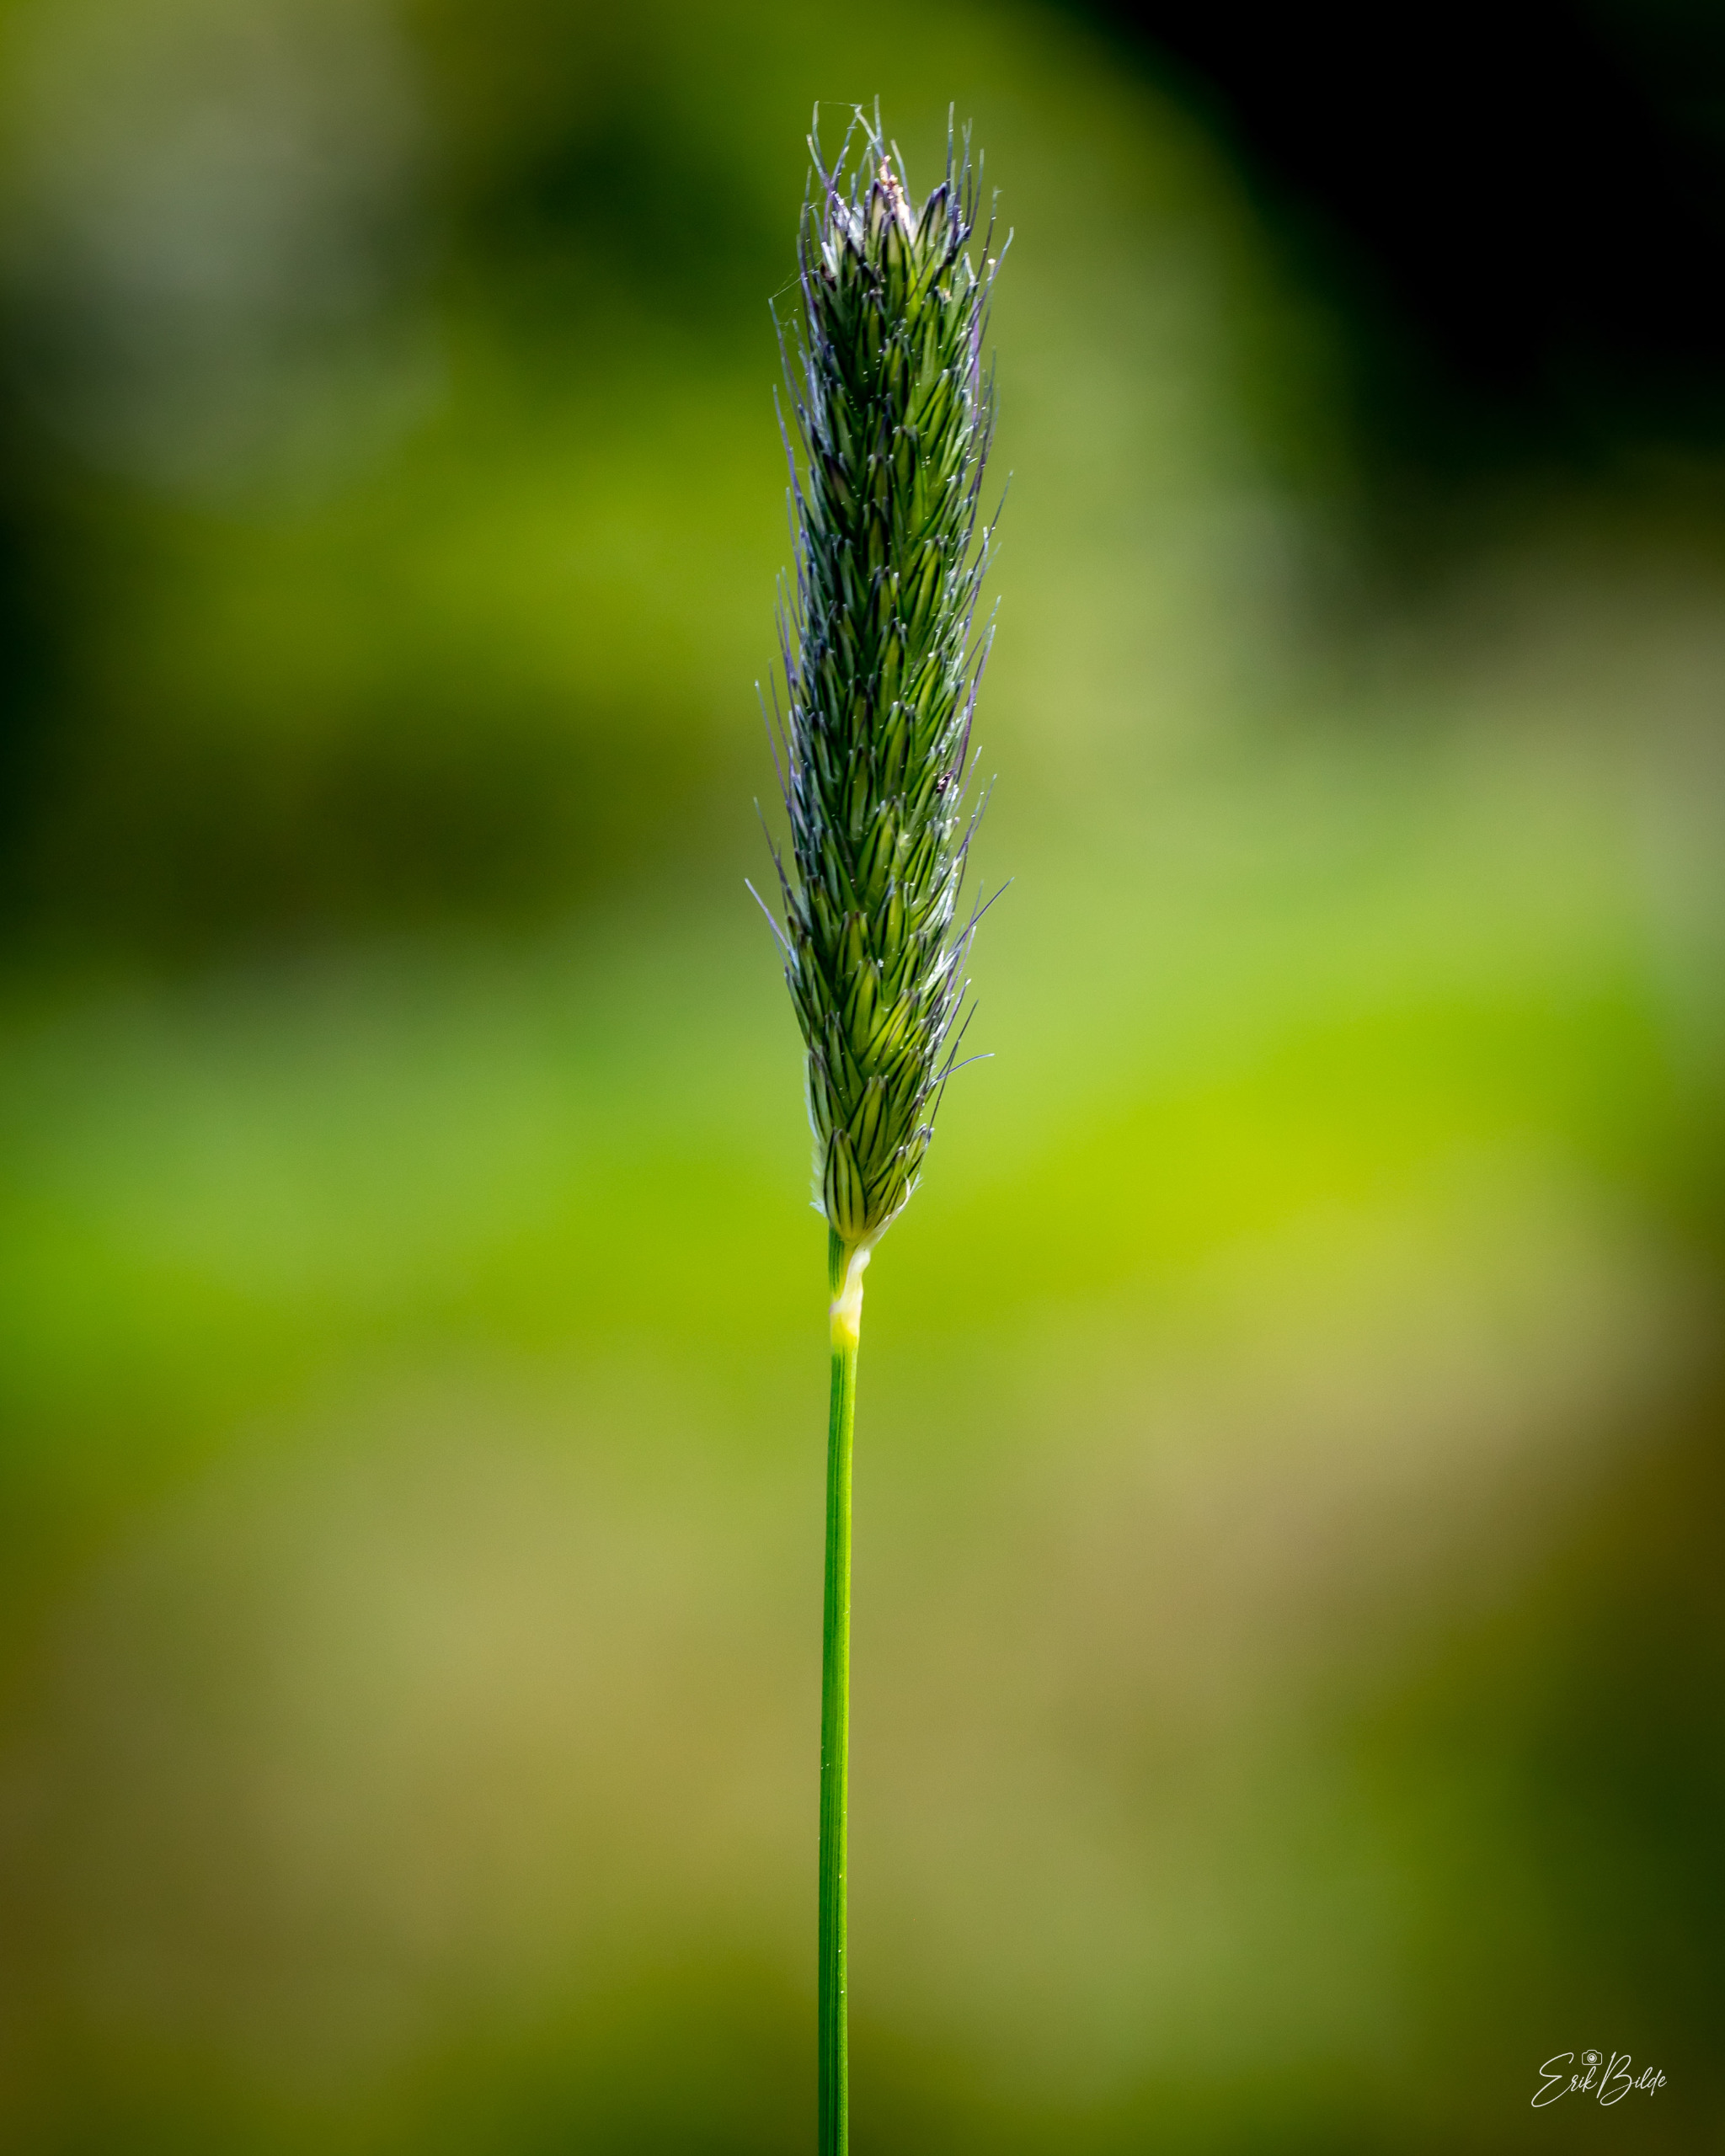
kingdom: Plantae
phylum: Tracheophyta
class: Liliopsida
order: Poales
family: Poaceae
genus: Alopecurus
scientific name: Alopecurus pratensis
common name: Eng-rævehale
